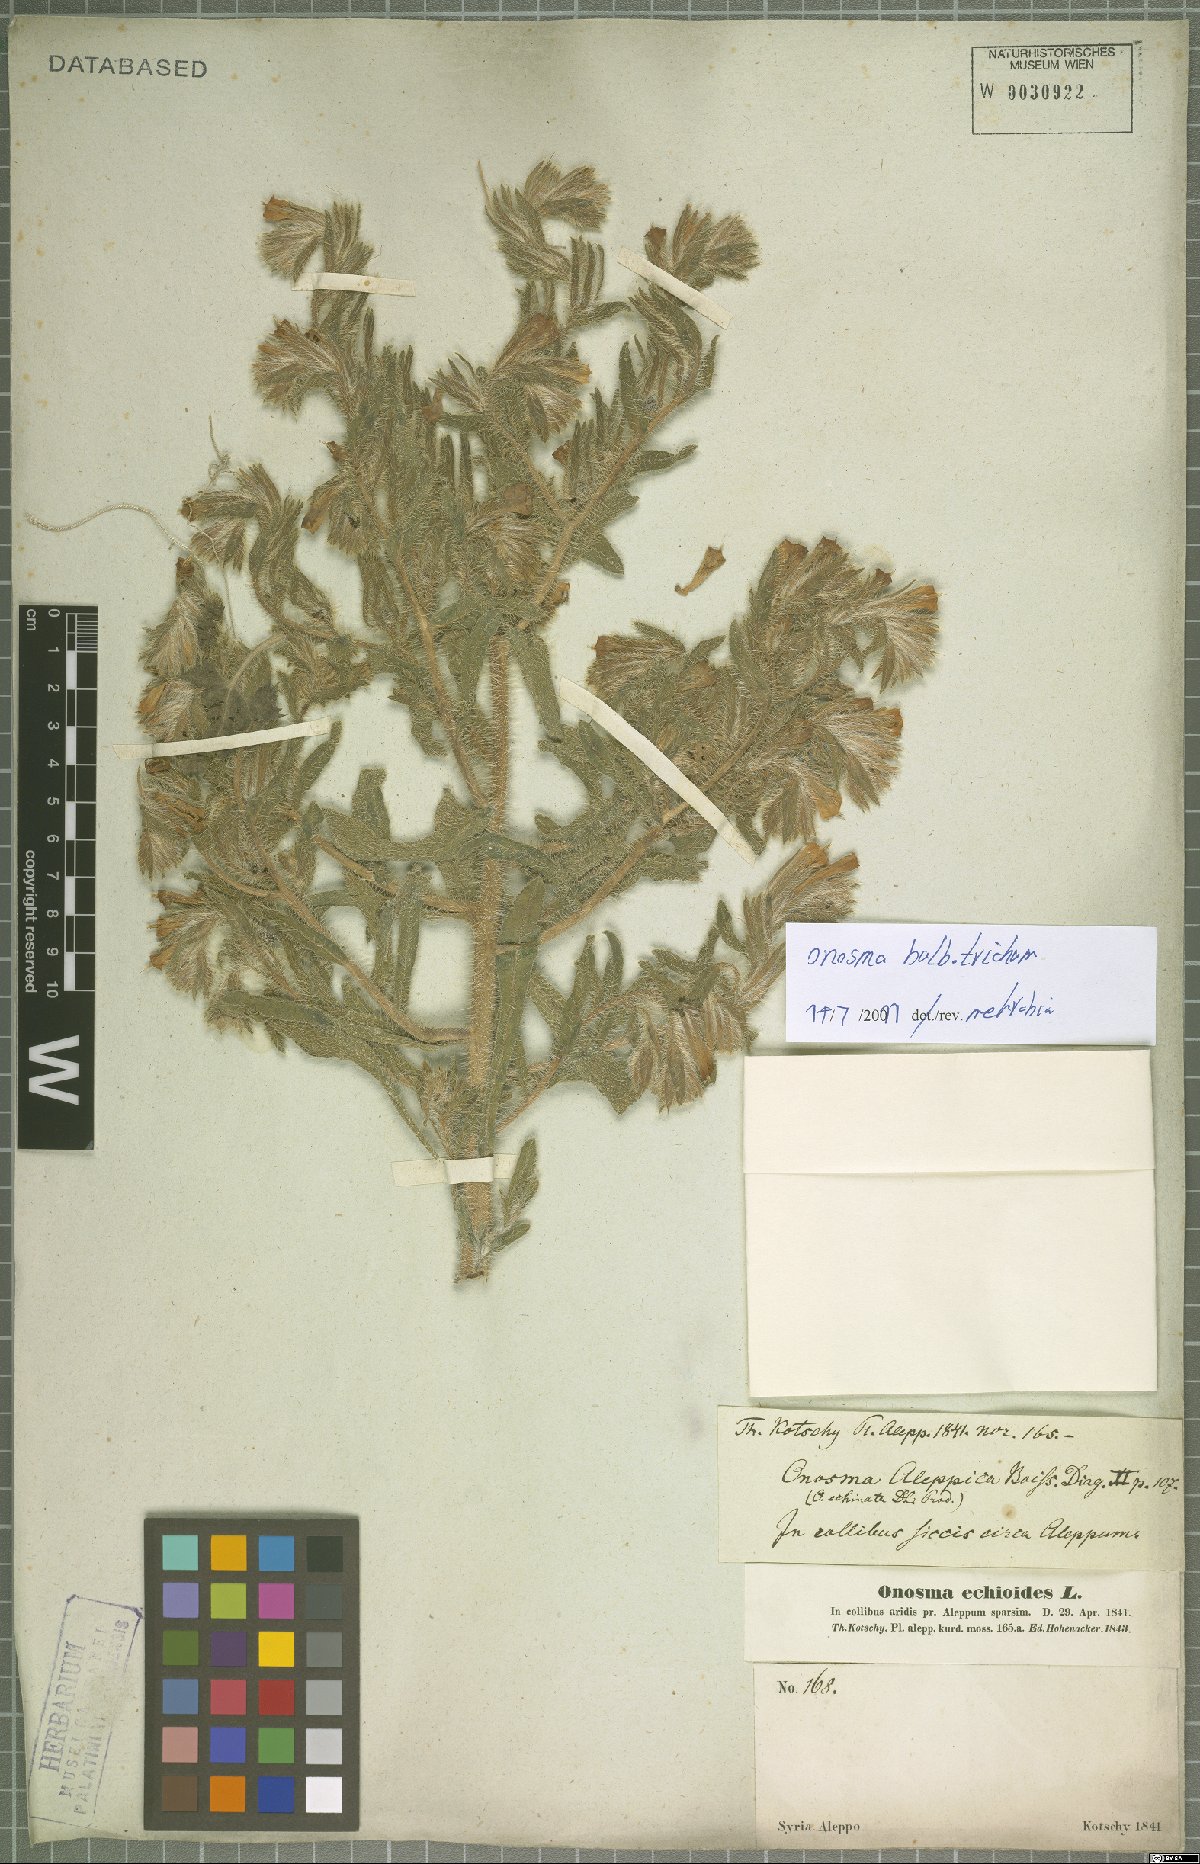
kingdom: Plantae
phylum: Tracheophyta
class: Magnoliopsida
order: Boraginales
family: Boraginaceae
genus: Onosma
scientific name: Onosma bulbotricha
